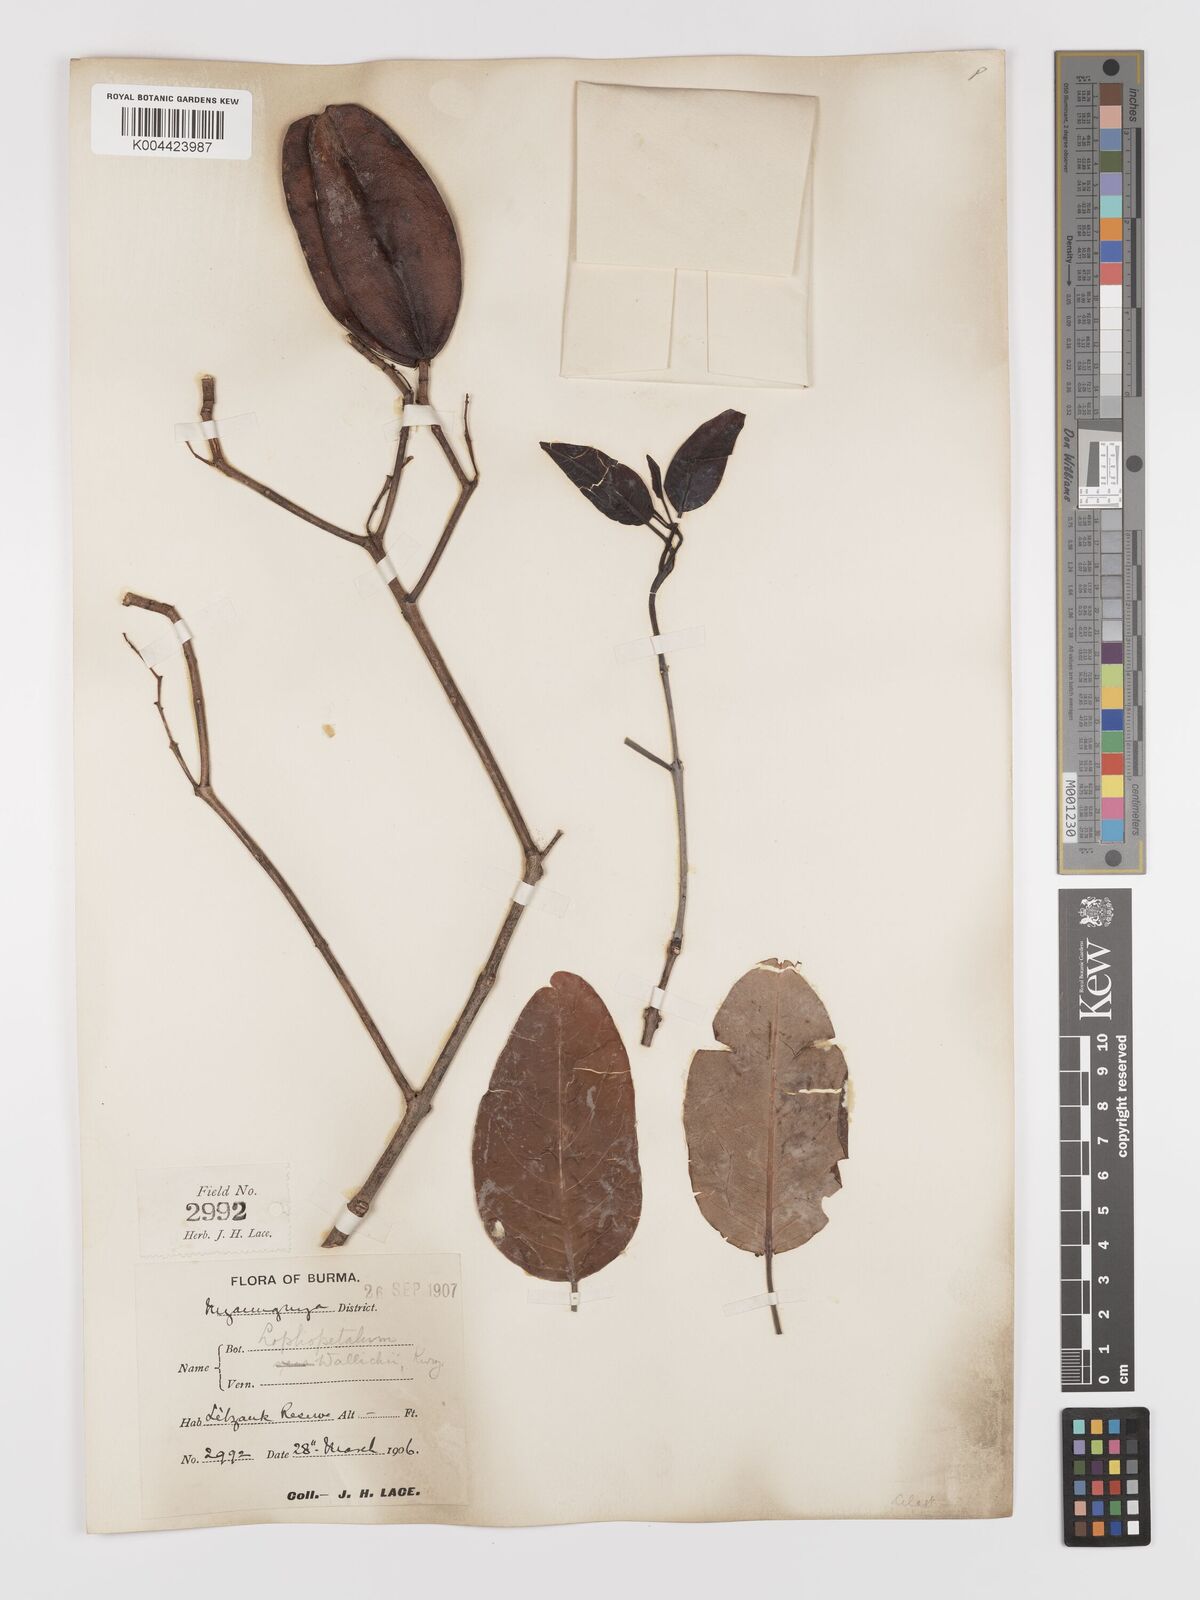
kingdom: Plantae
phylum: Tracheophyta
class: Magnoliopsida
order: Celastrales
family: Celastraceae
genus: Lophopetalum
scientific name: Lophopetalum wallichii
